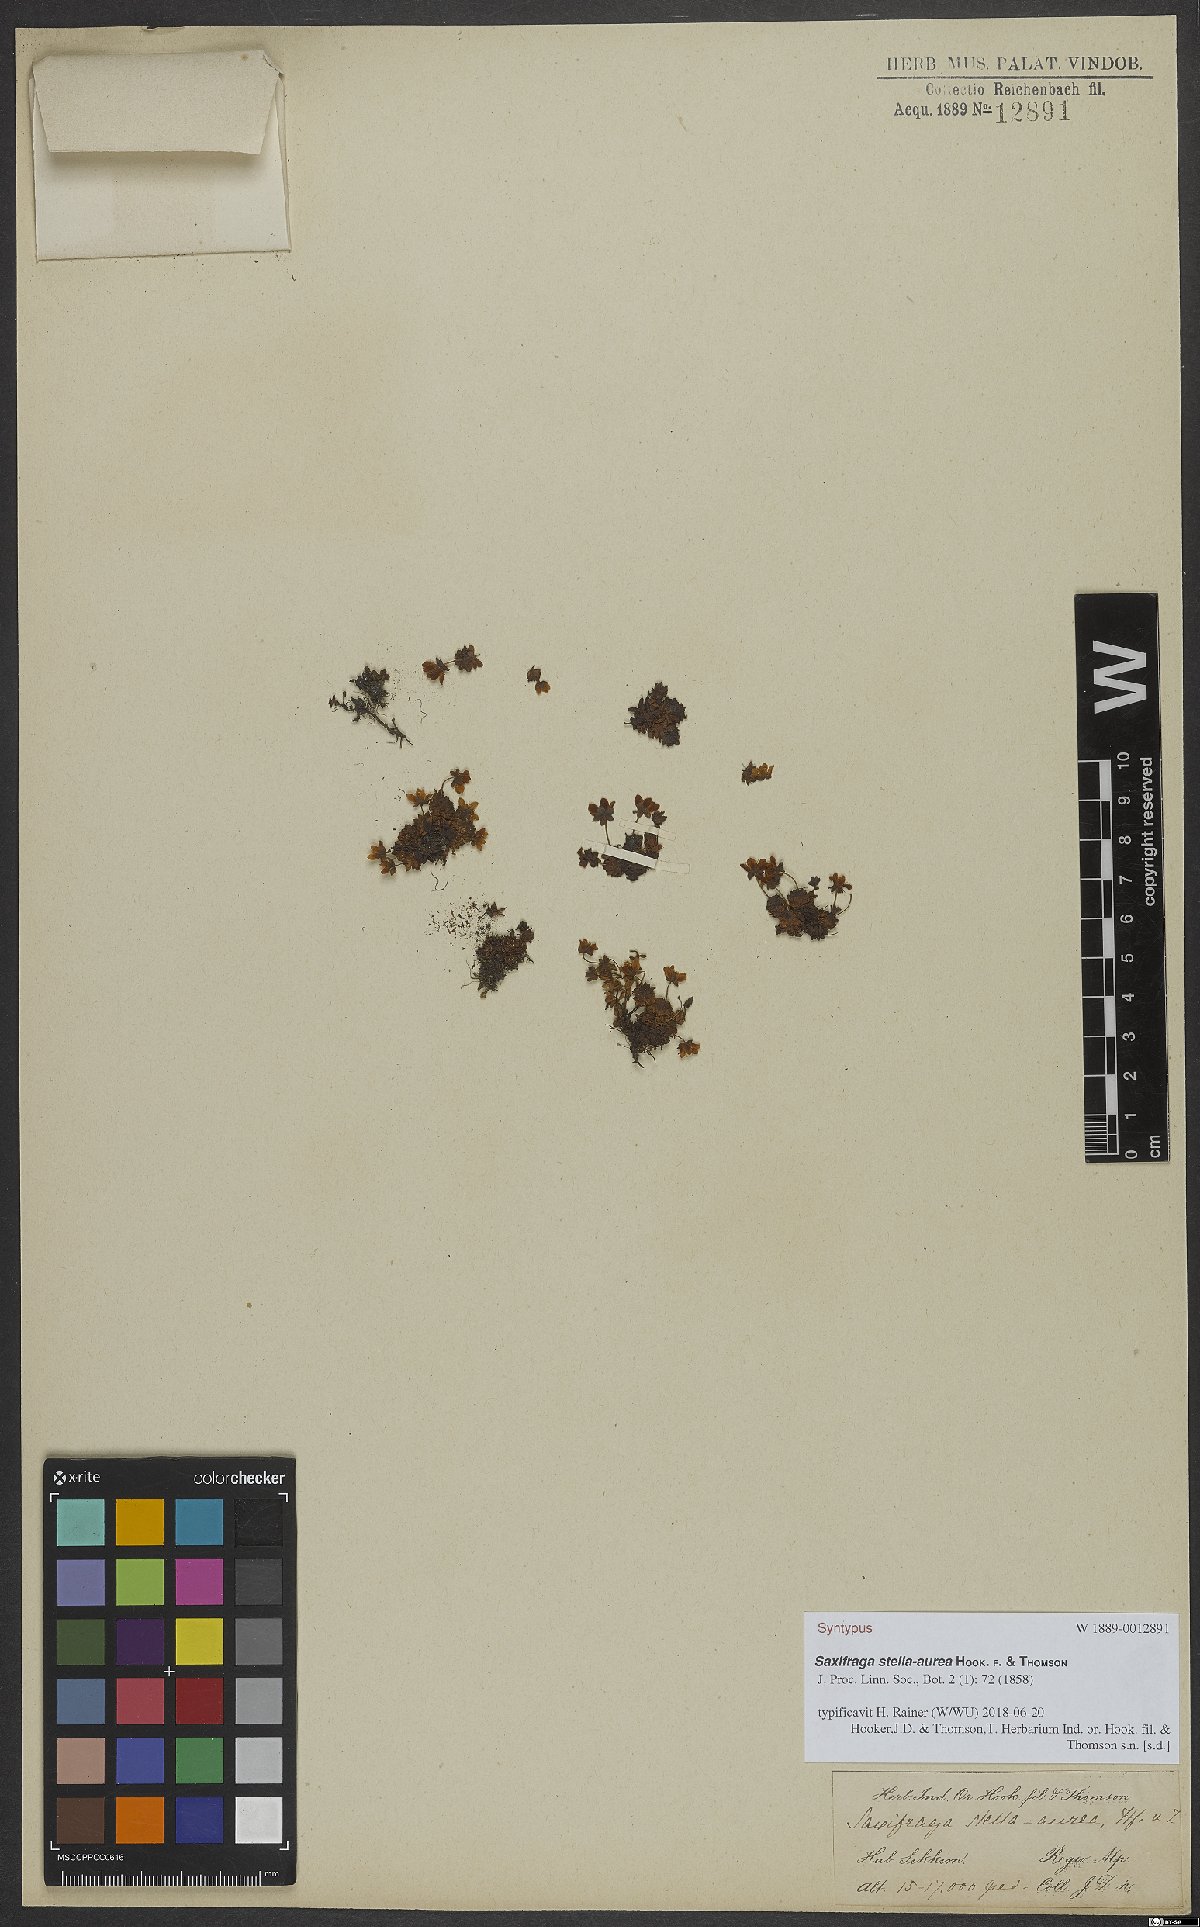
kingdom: Plantae
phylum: Tracheophyta
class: Magnoliopsida
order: Saxifragales
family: Saxifragaceae
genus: Saxifraga
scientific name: Saxifraga stella-aurea
